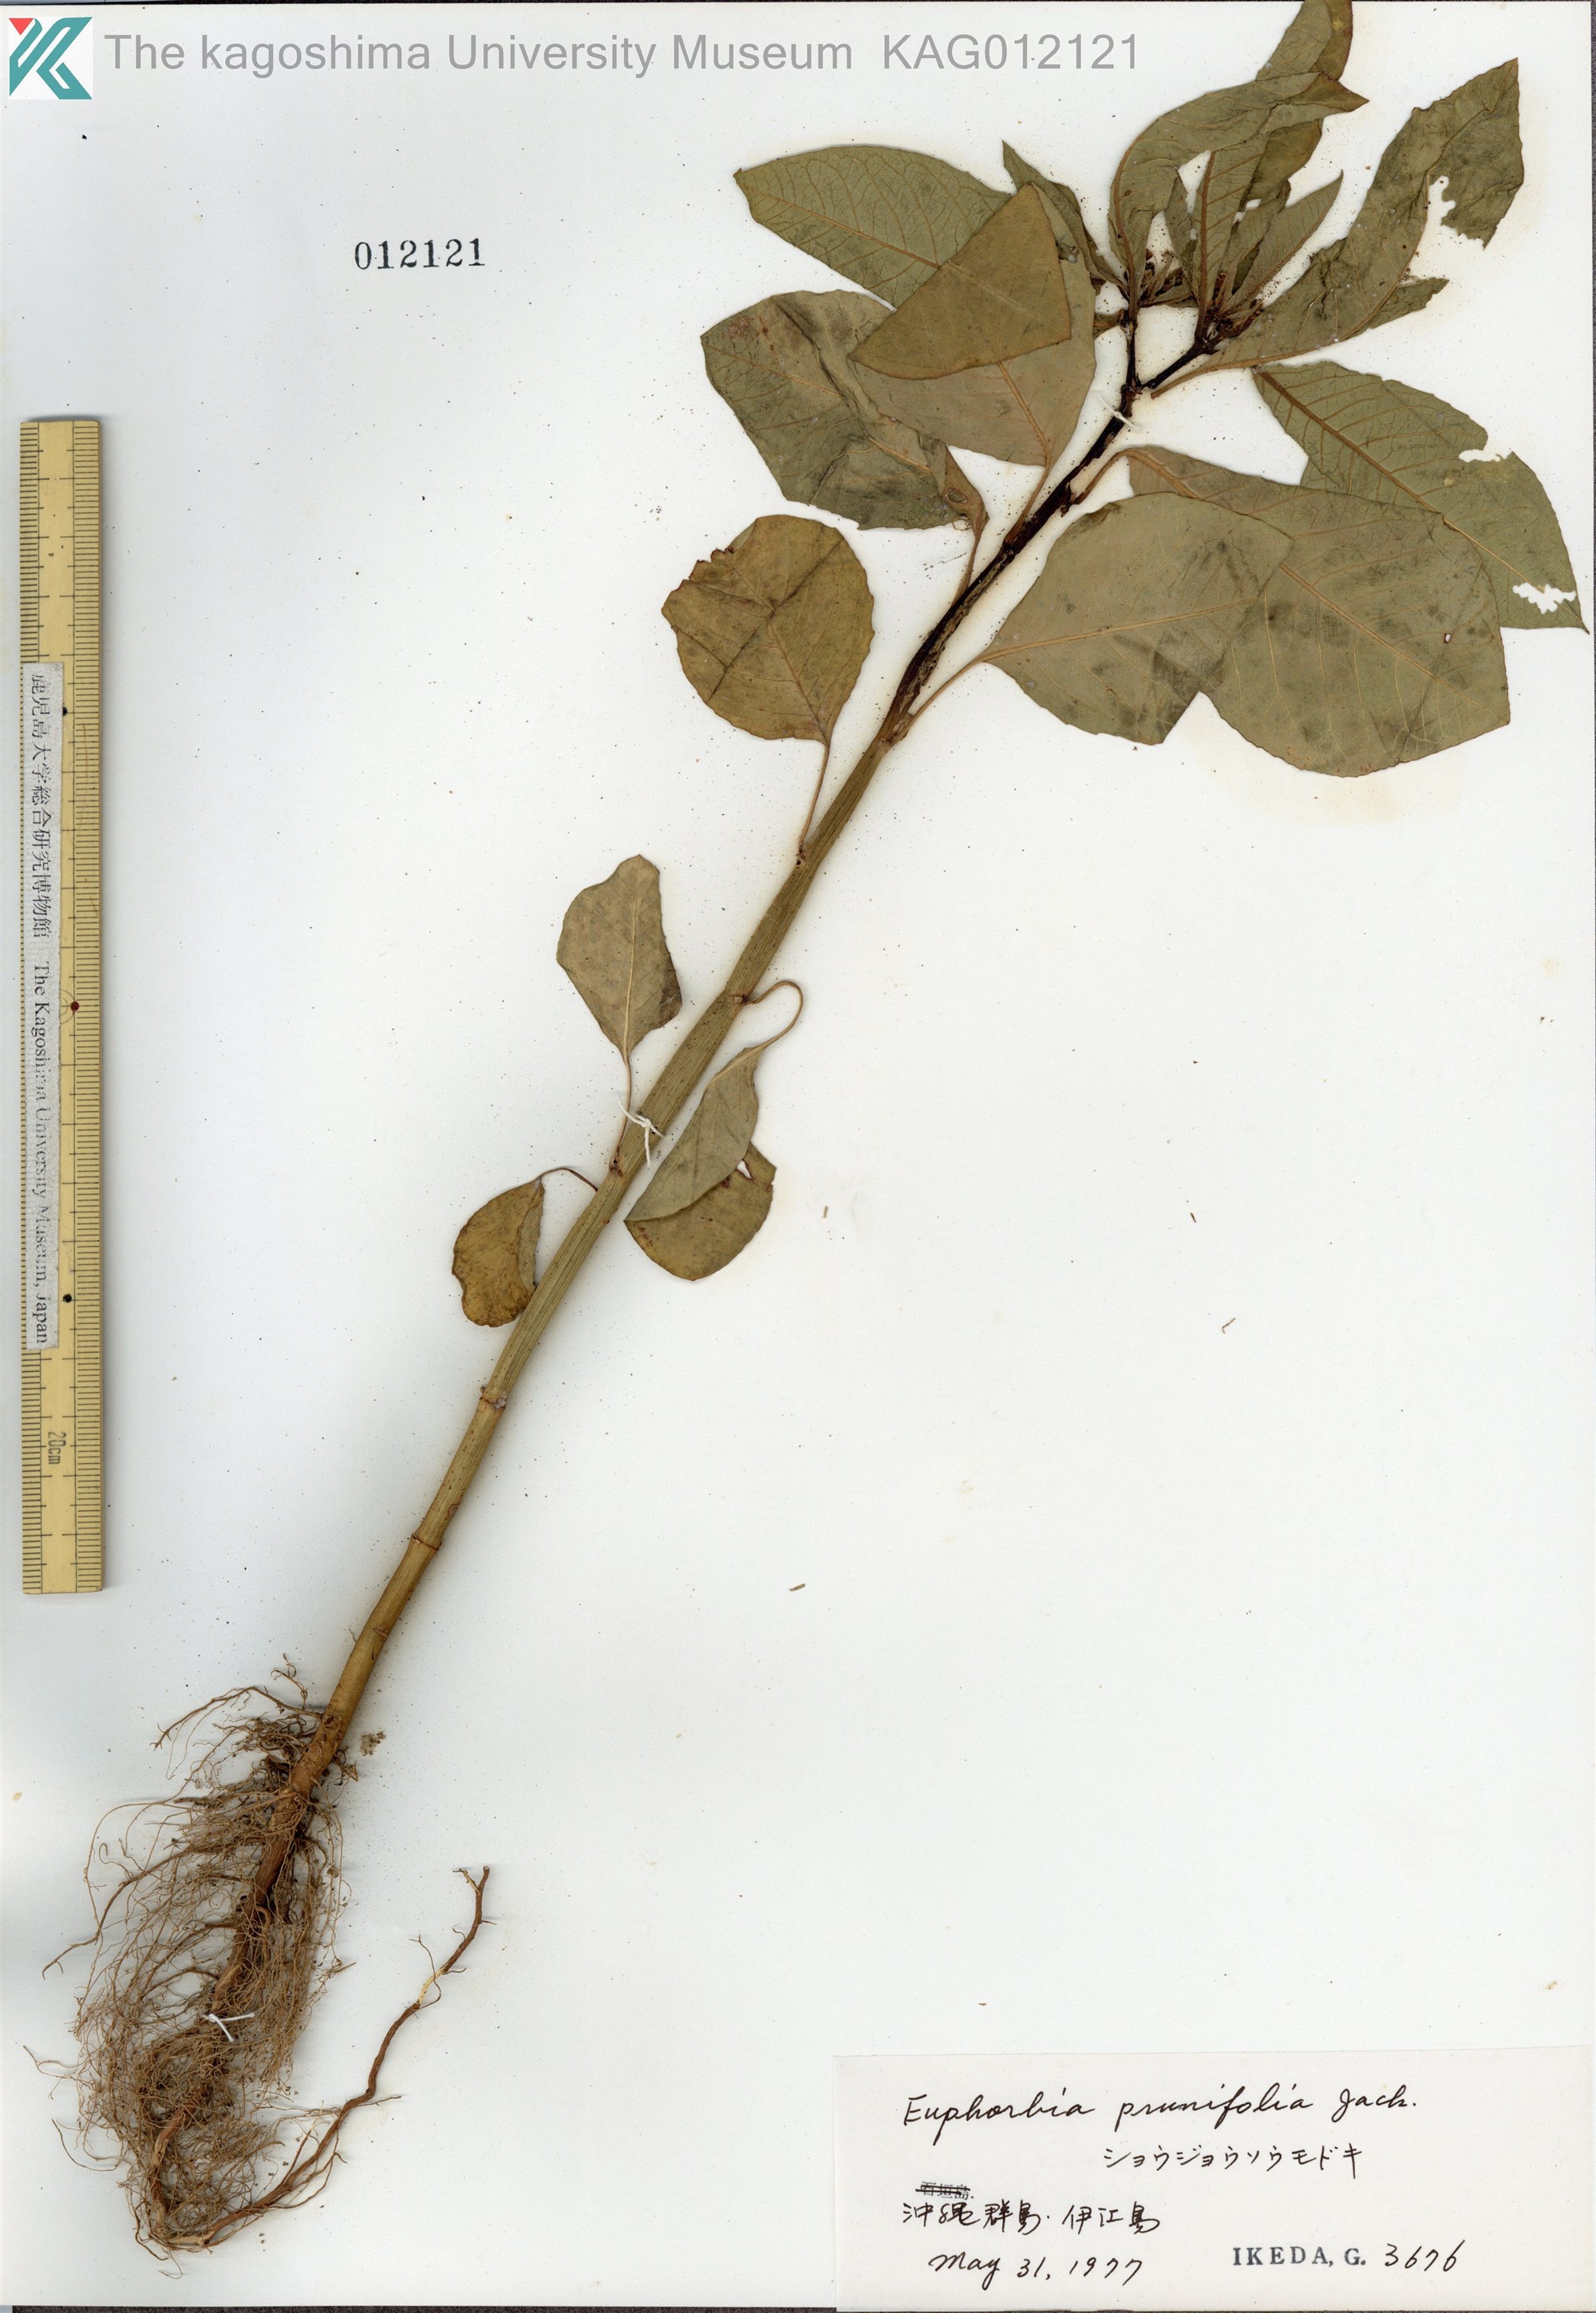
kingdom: Plantae
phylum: Tracheophyta
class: Magnoliopsida
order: Malpighiales
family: Euphorbiaceae
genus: Euphorbia
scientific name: Euphorbia heterophylla
